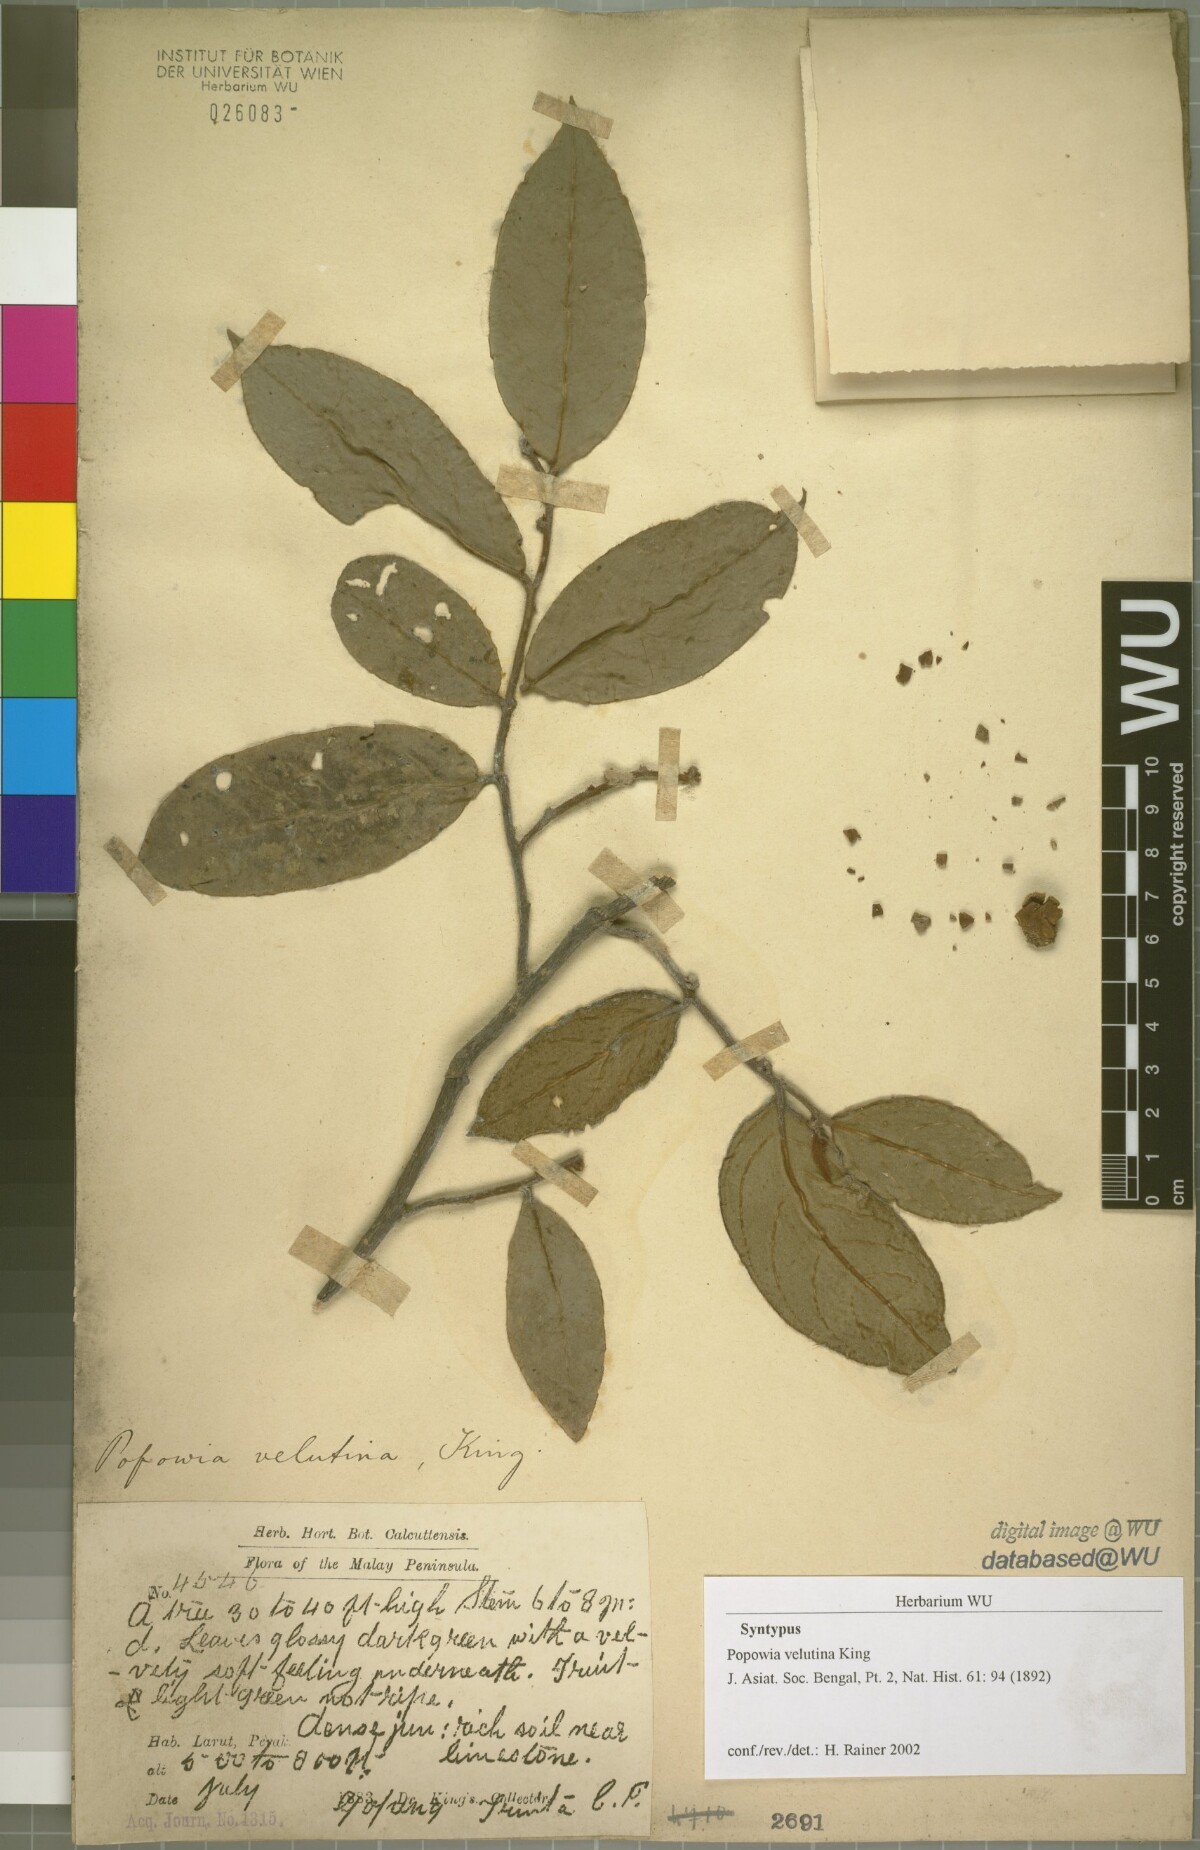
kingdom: Plantae
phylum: Tracheophyta
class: Magnoliopsida
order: Magnoliales
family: Annonaceae
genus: Popowia
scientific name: Popowia velutina
